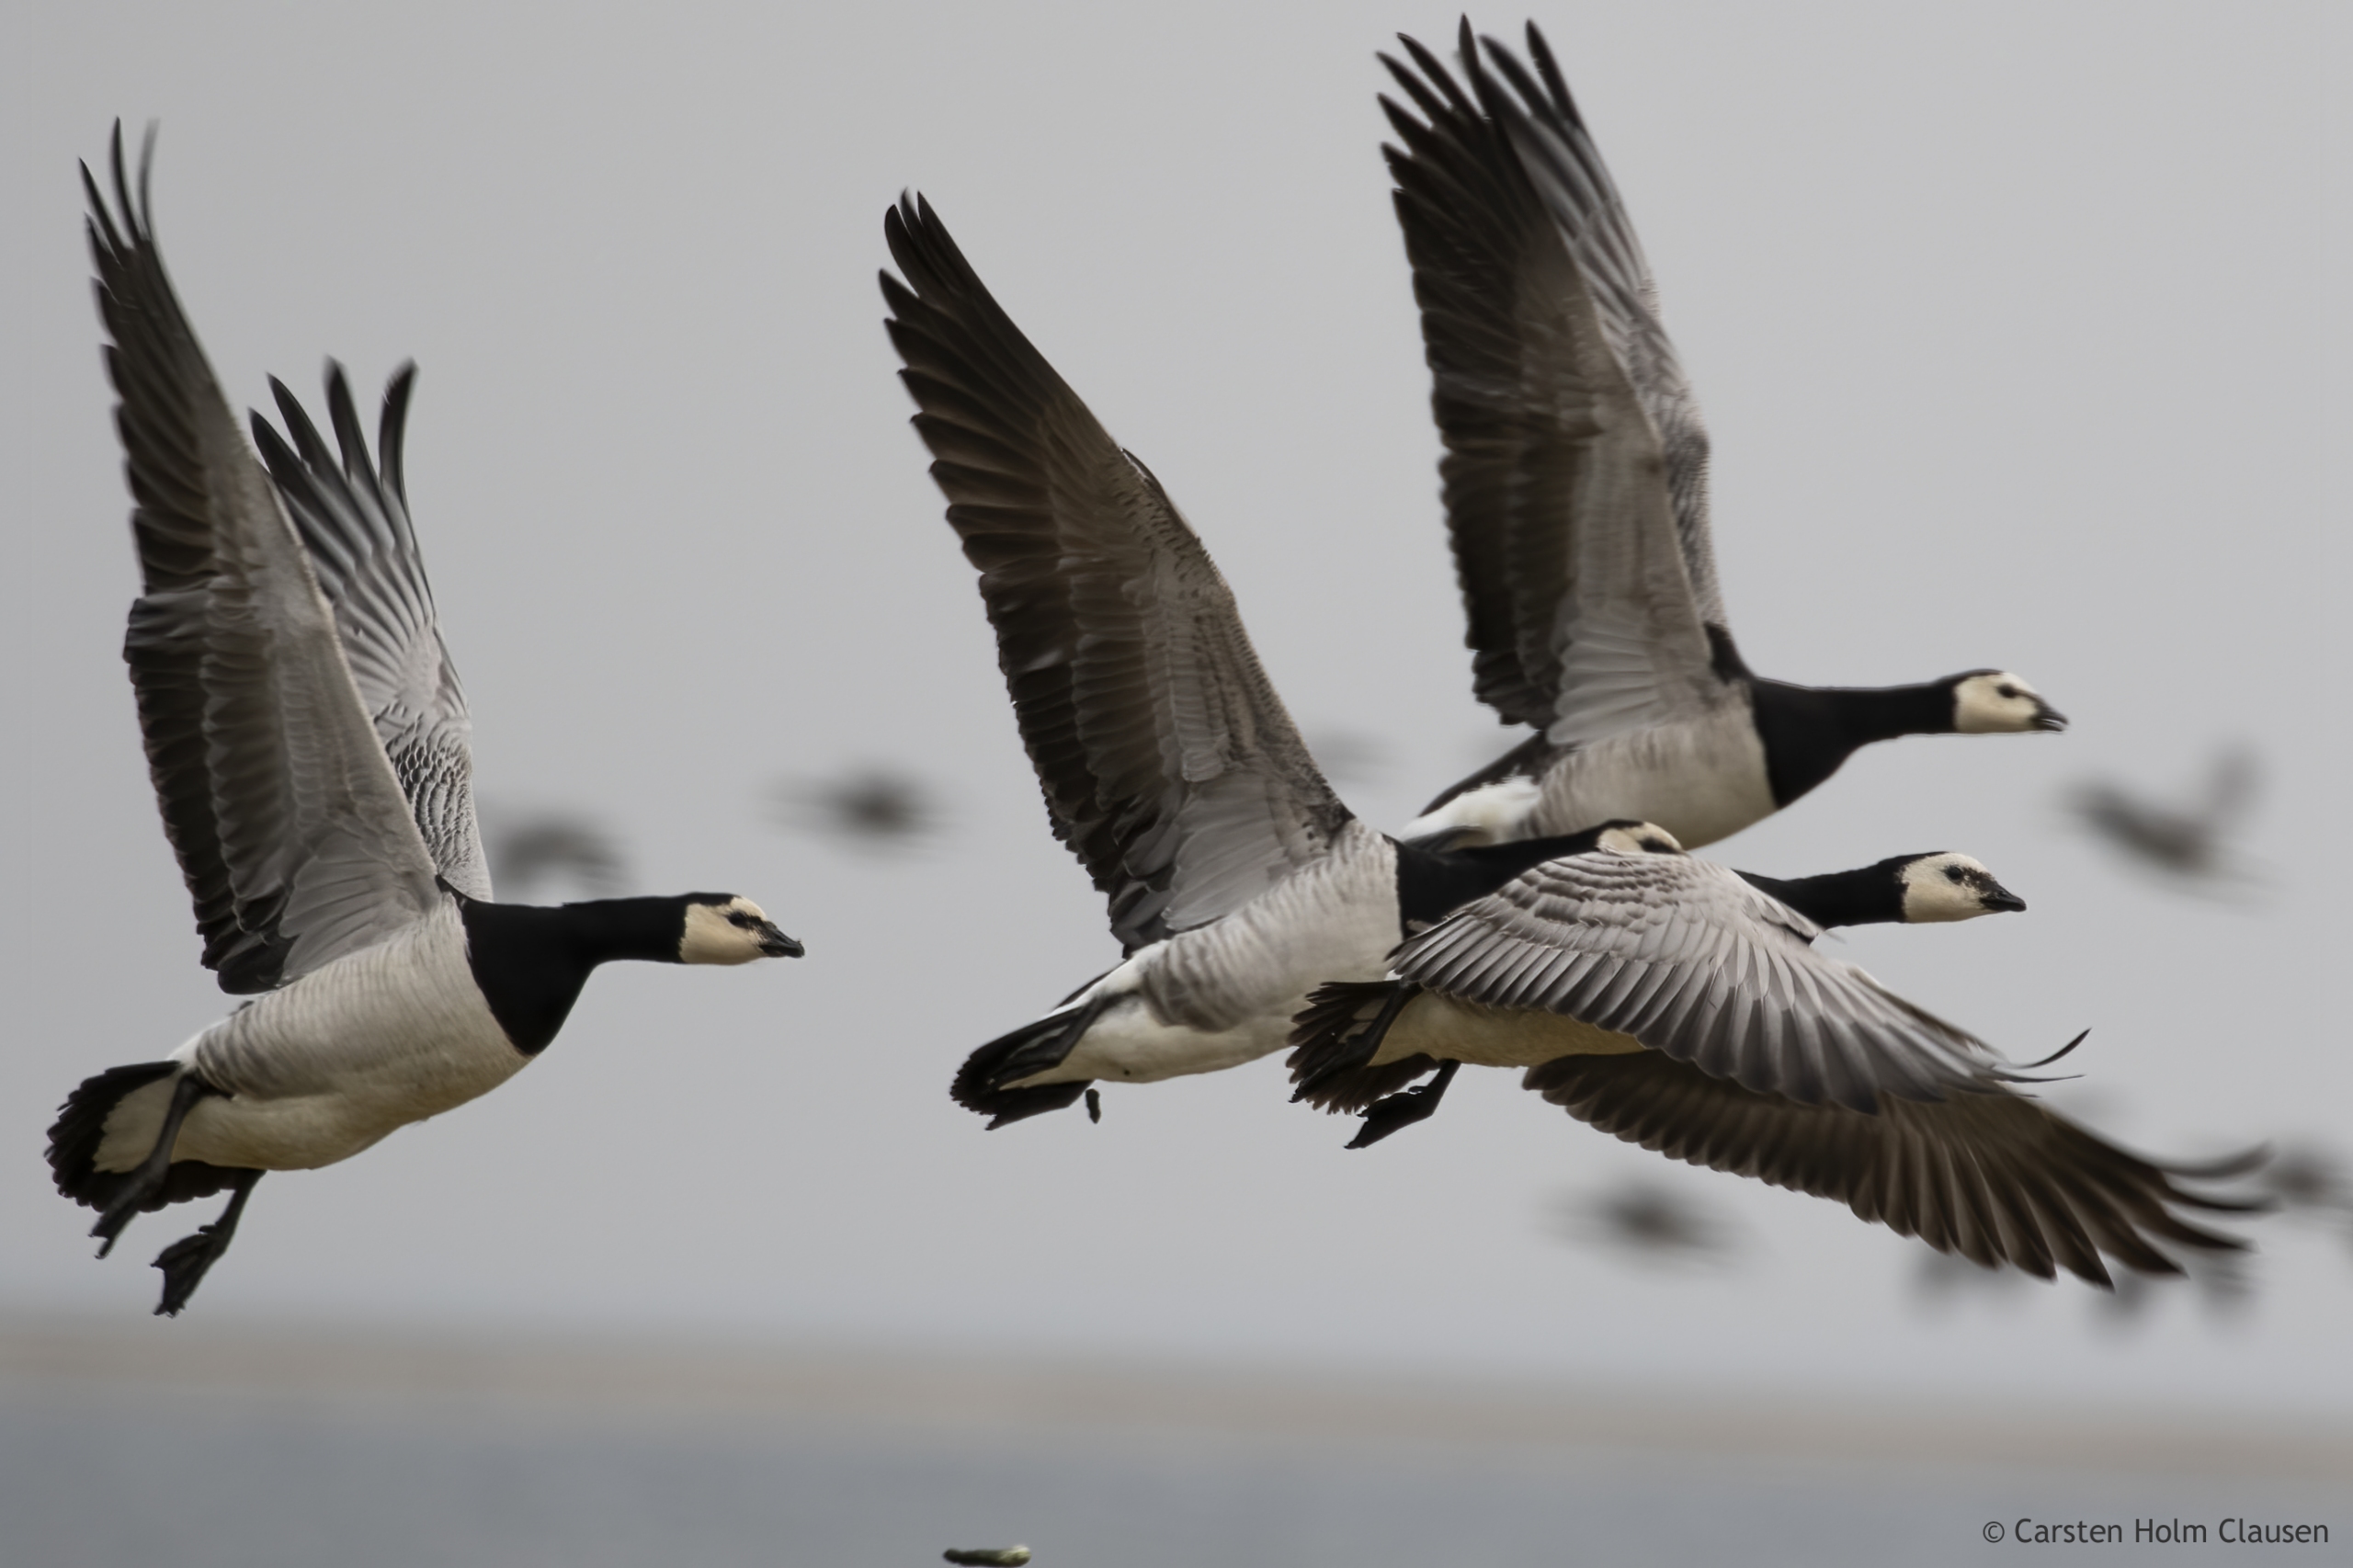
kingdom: Animalia
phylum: Chordata
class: Aves
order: Anseriformes
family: Anatidae
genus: Branta
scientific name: Branta leucopsis
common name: Bramgås
